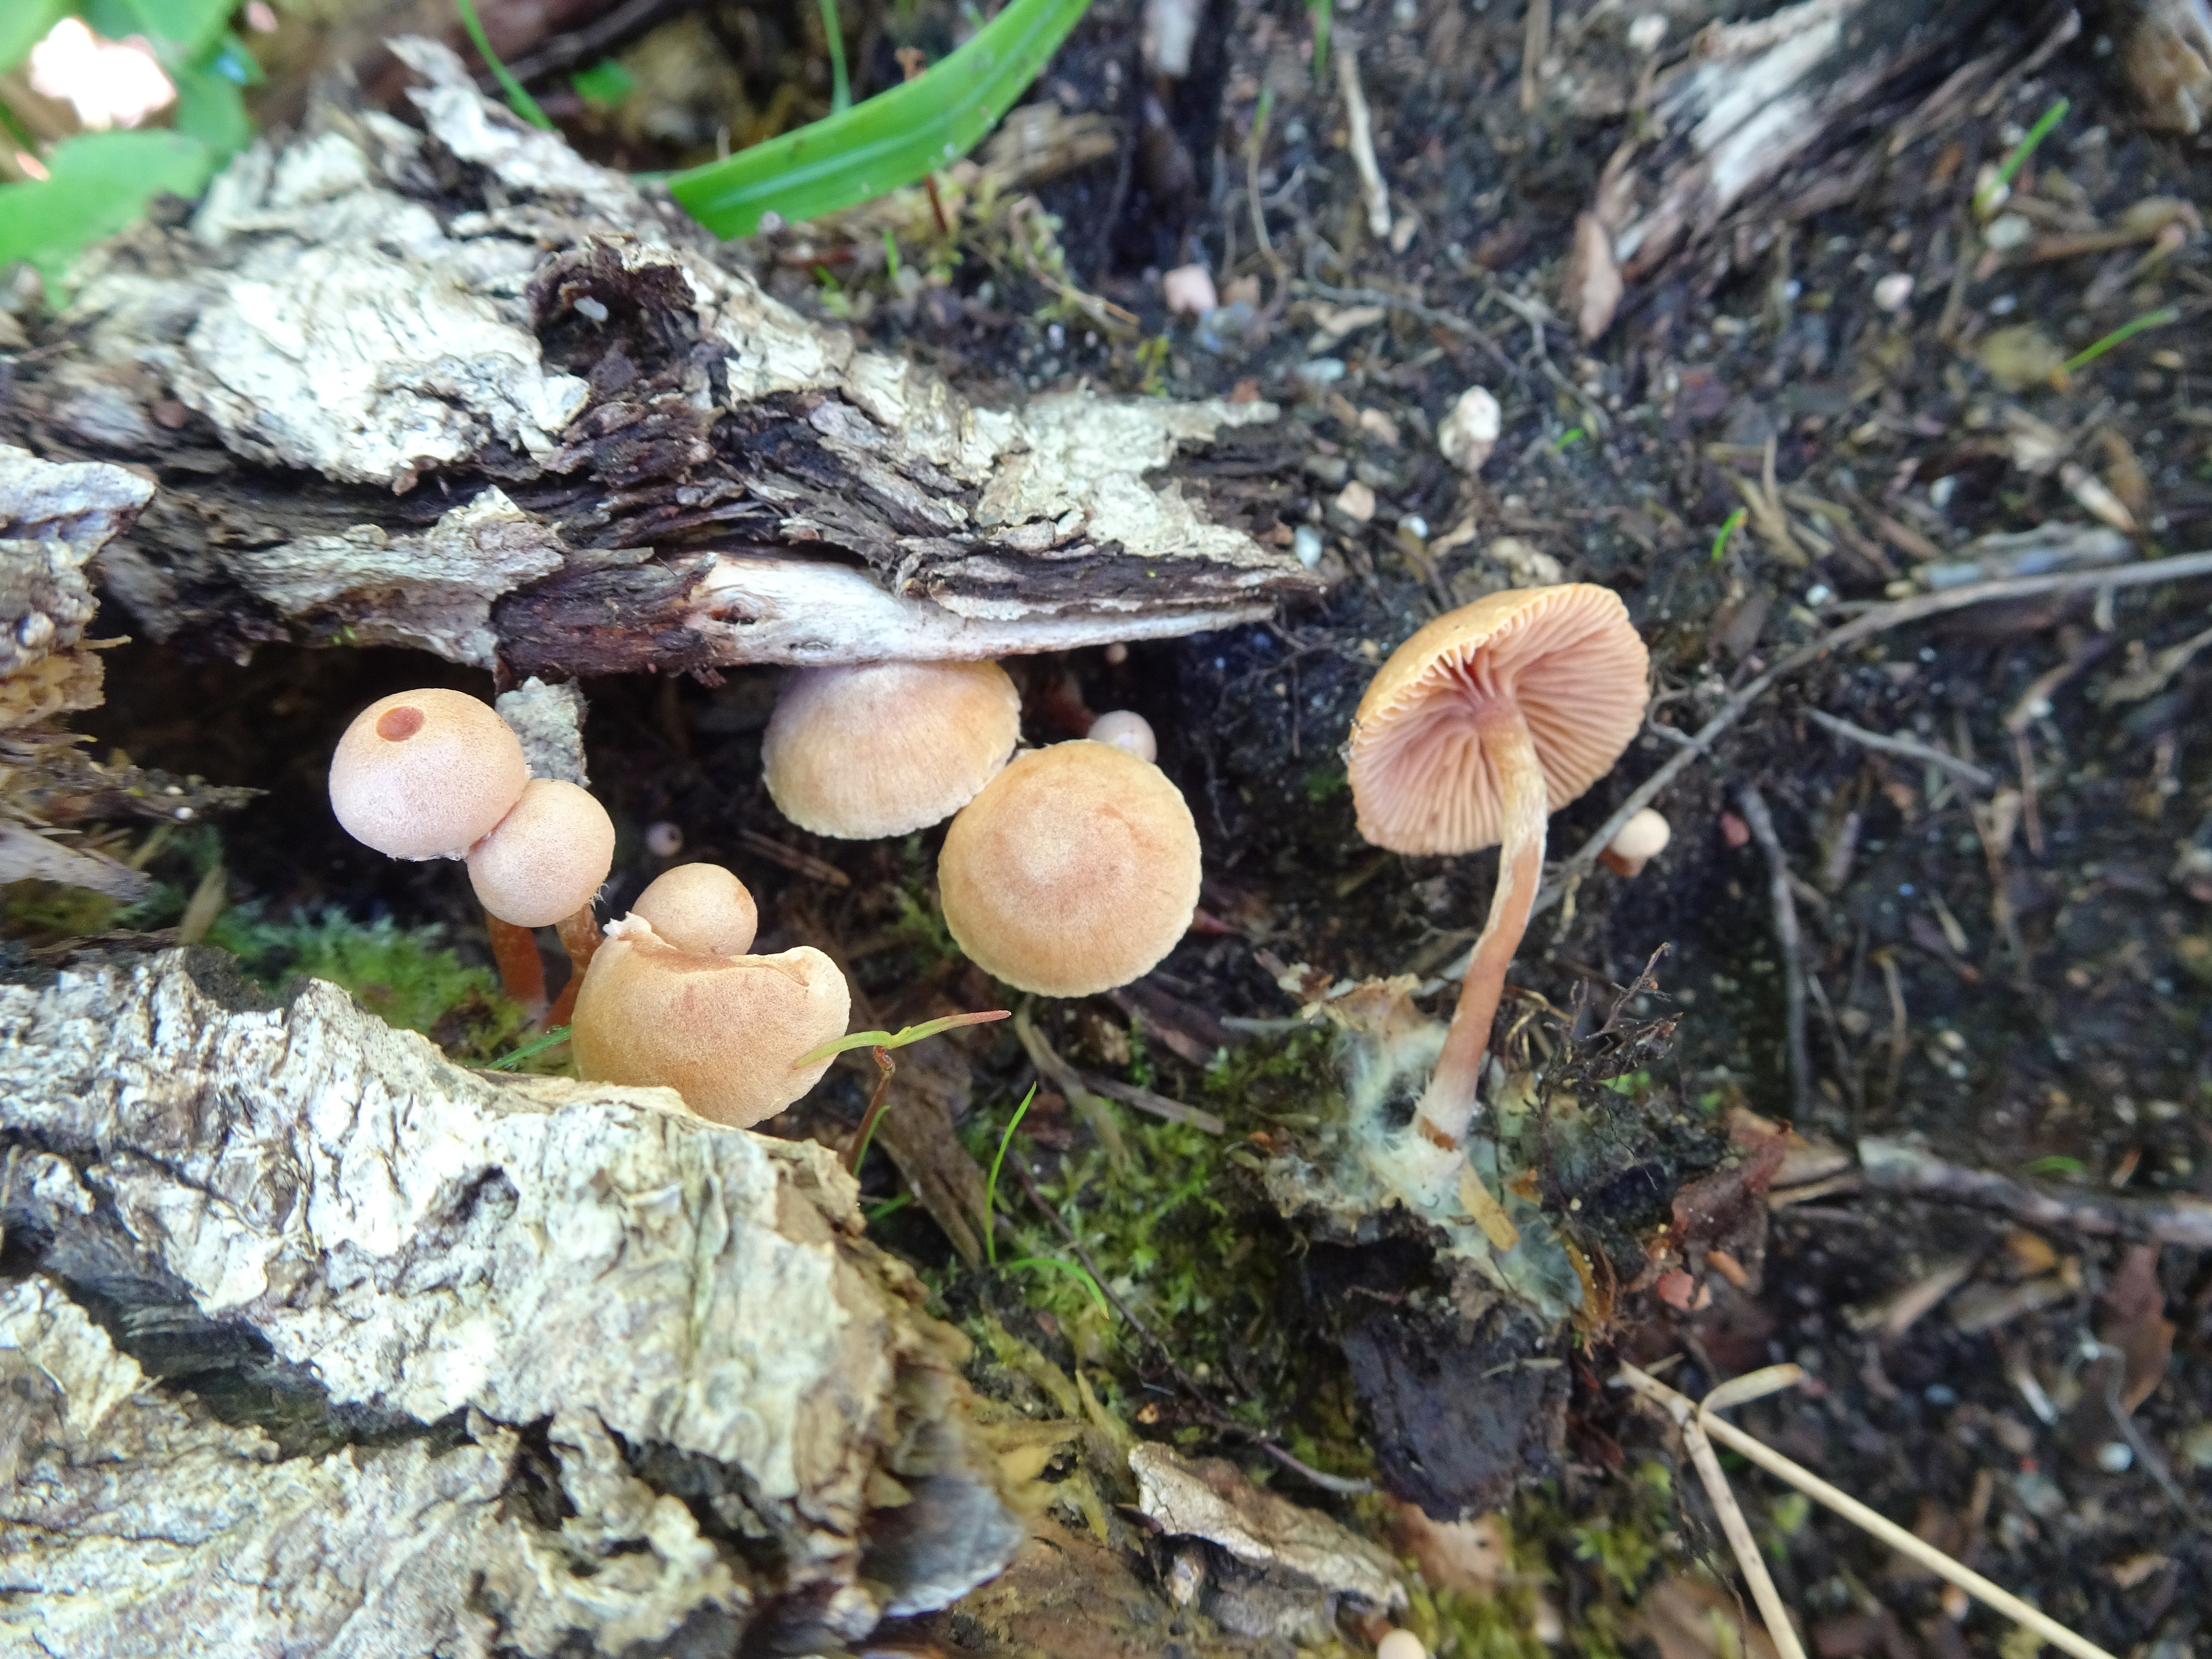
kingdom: Fungi
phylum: Basidiomycota
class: Agaricomycetes
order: Agaricales
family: Tubariaceae
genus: Tubaria
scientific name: Tubaria conspersa
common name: Felted twiglet
